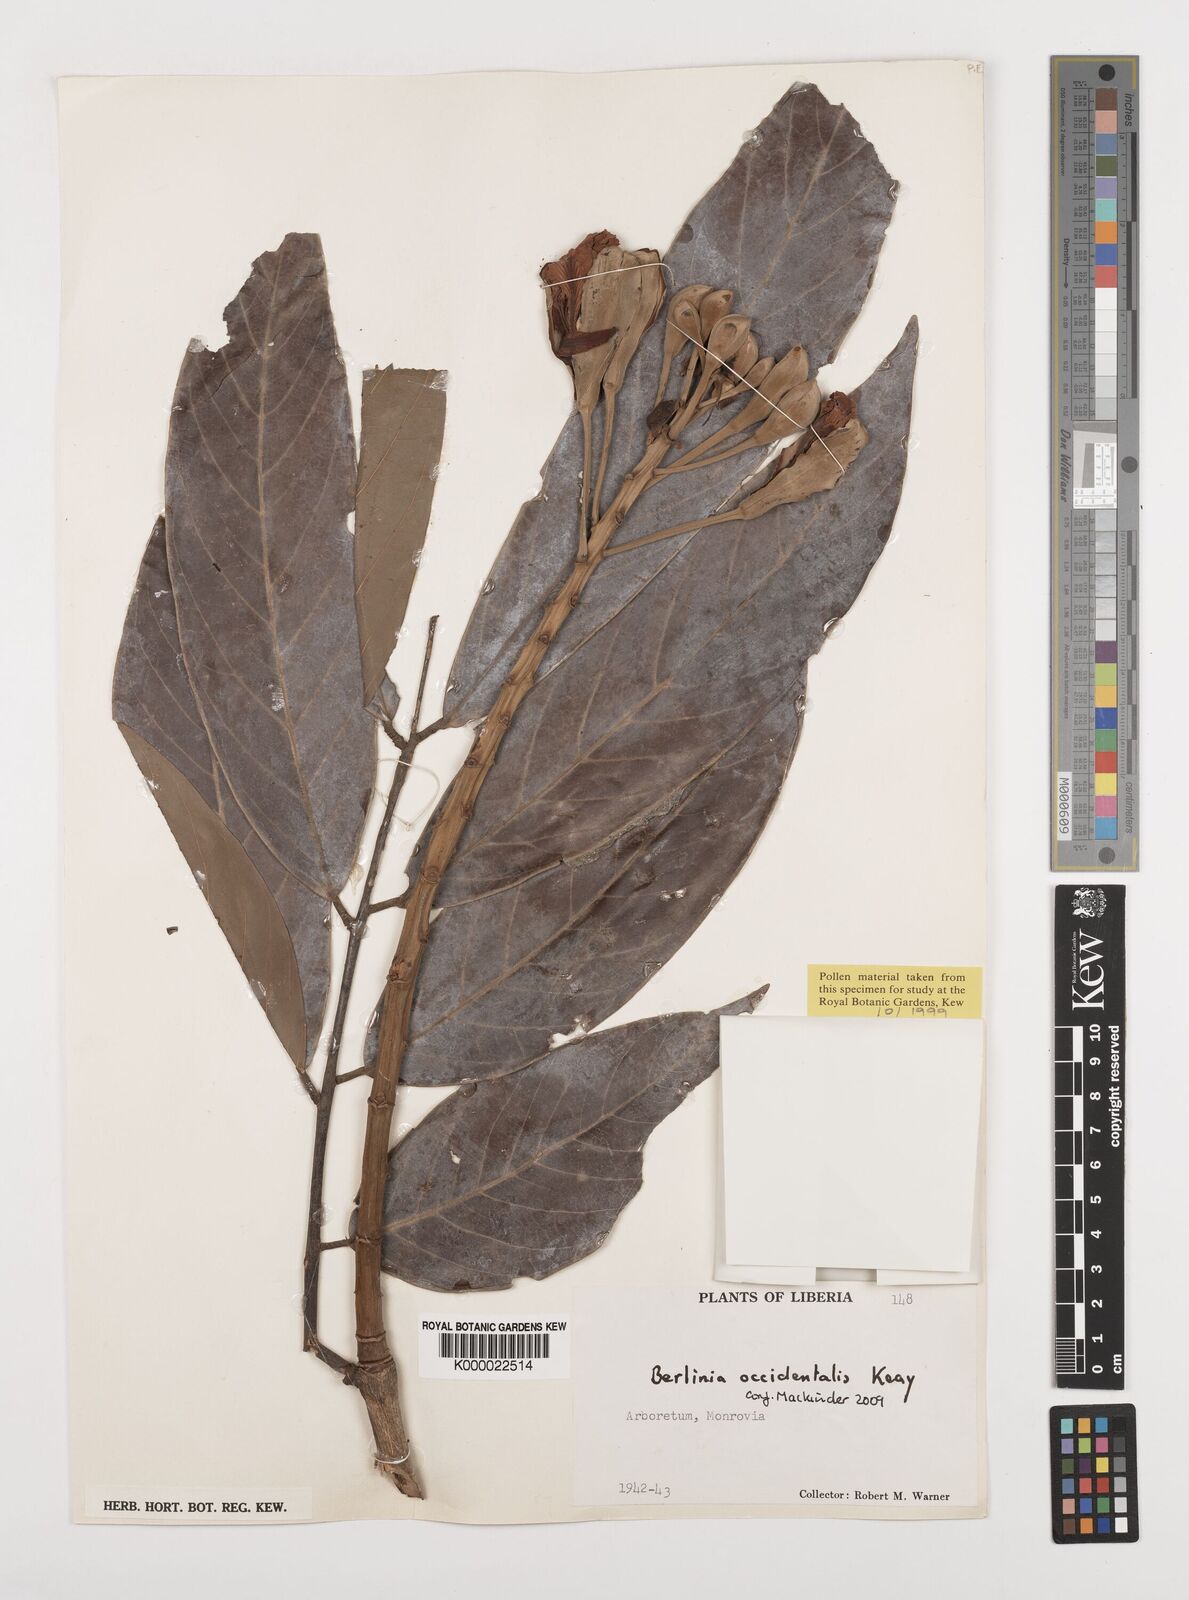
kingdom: Plantae
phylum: Tracheophyta
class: Magnoliopsida
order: Fabales
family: Fabaceae
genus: Berlinia
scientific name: Berlinia occidentalis
